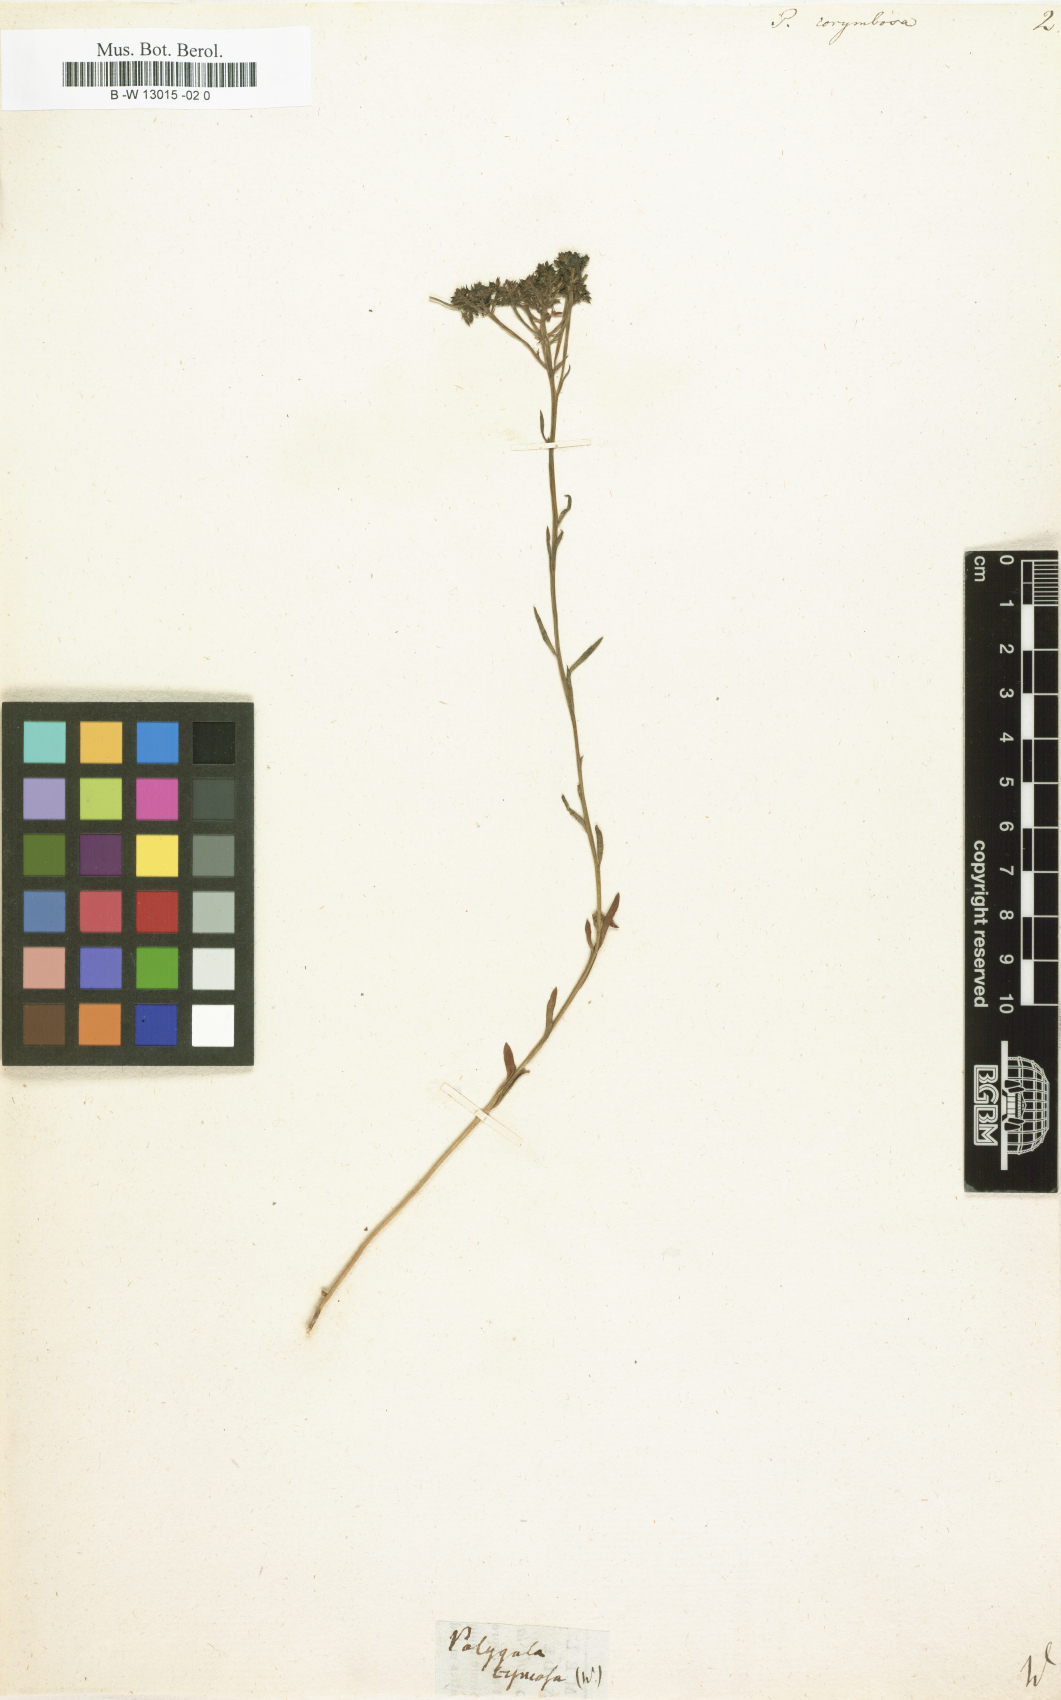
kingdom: Plantae
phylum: Tracheophyta
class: Magnoliopsida
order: Fabales
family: Polygalaceae
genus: Polygala
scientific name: Polygala
